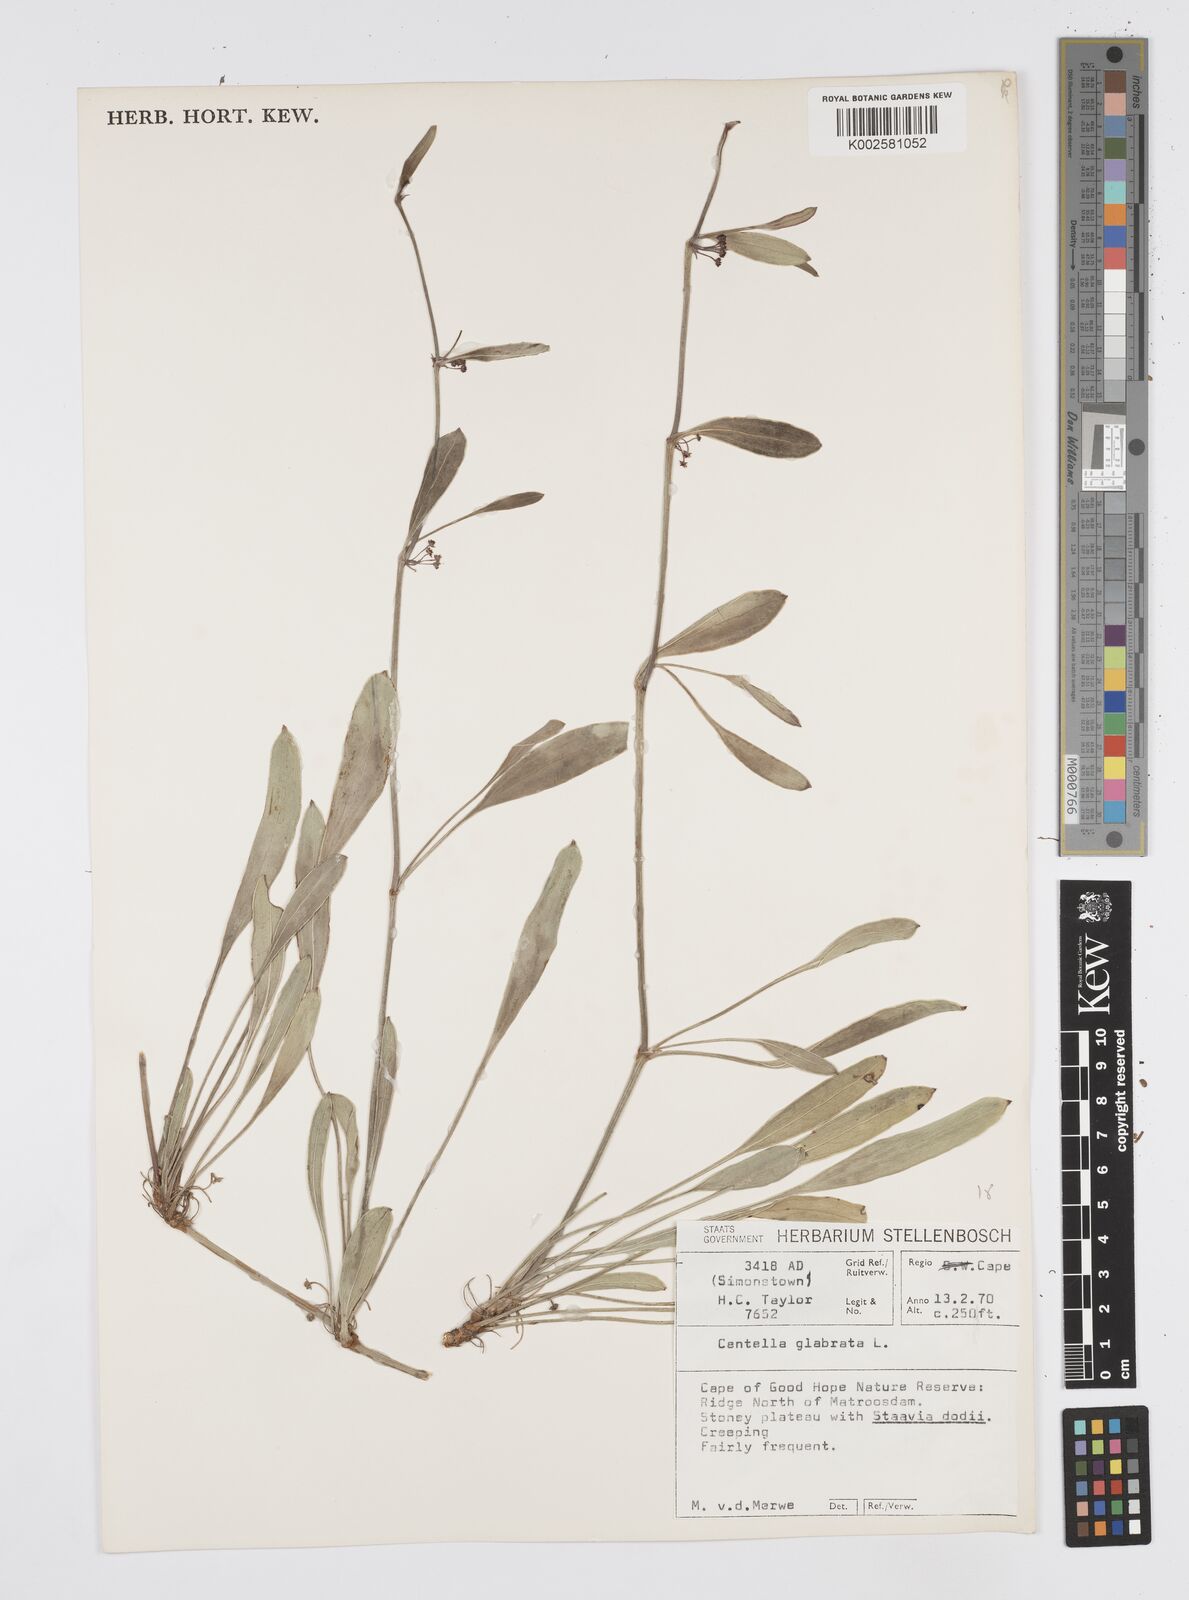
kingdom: Plantae
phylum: Tracheophyta
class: Magnoliopsida
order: Apiales
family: Apiaceae
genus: Centella
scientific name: Centella glabrata
